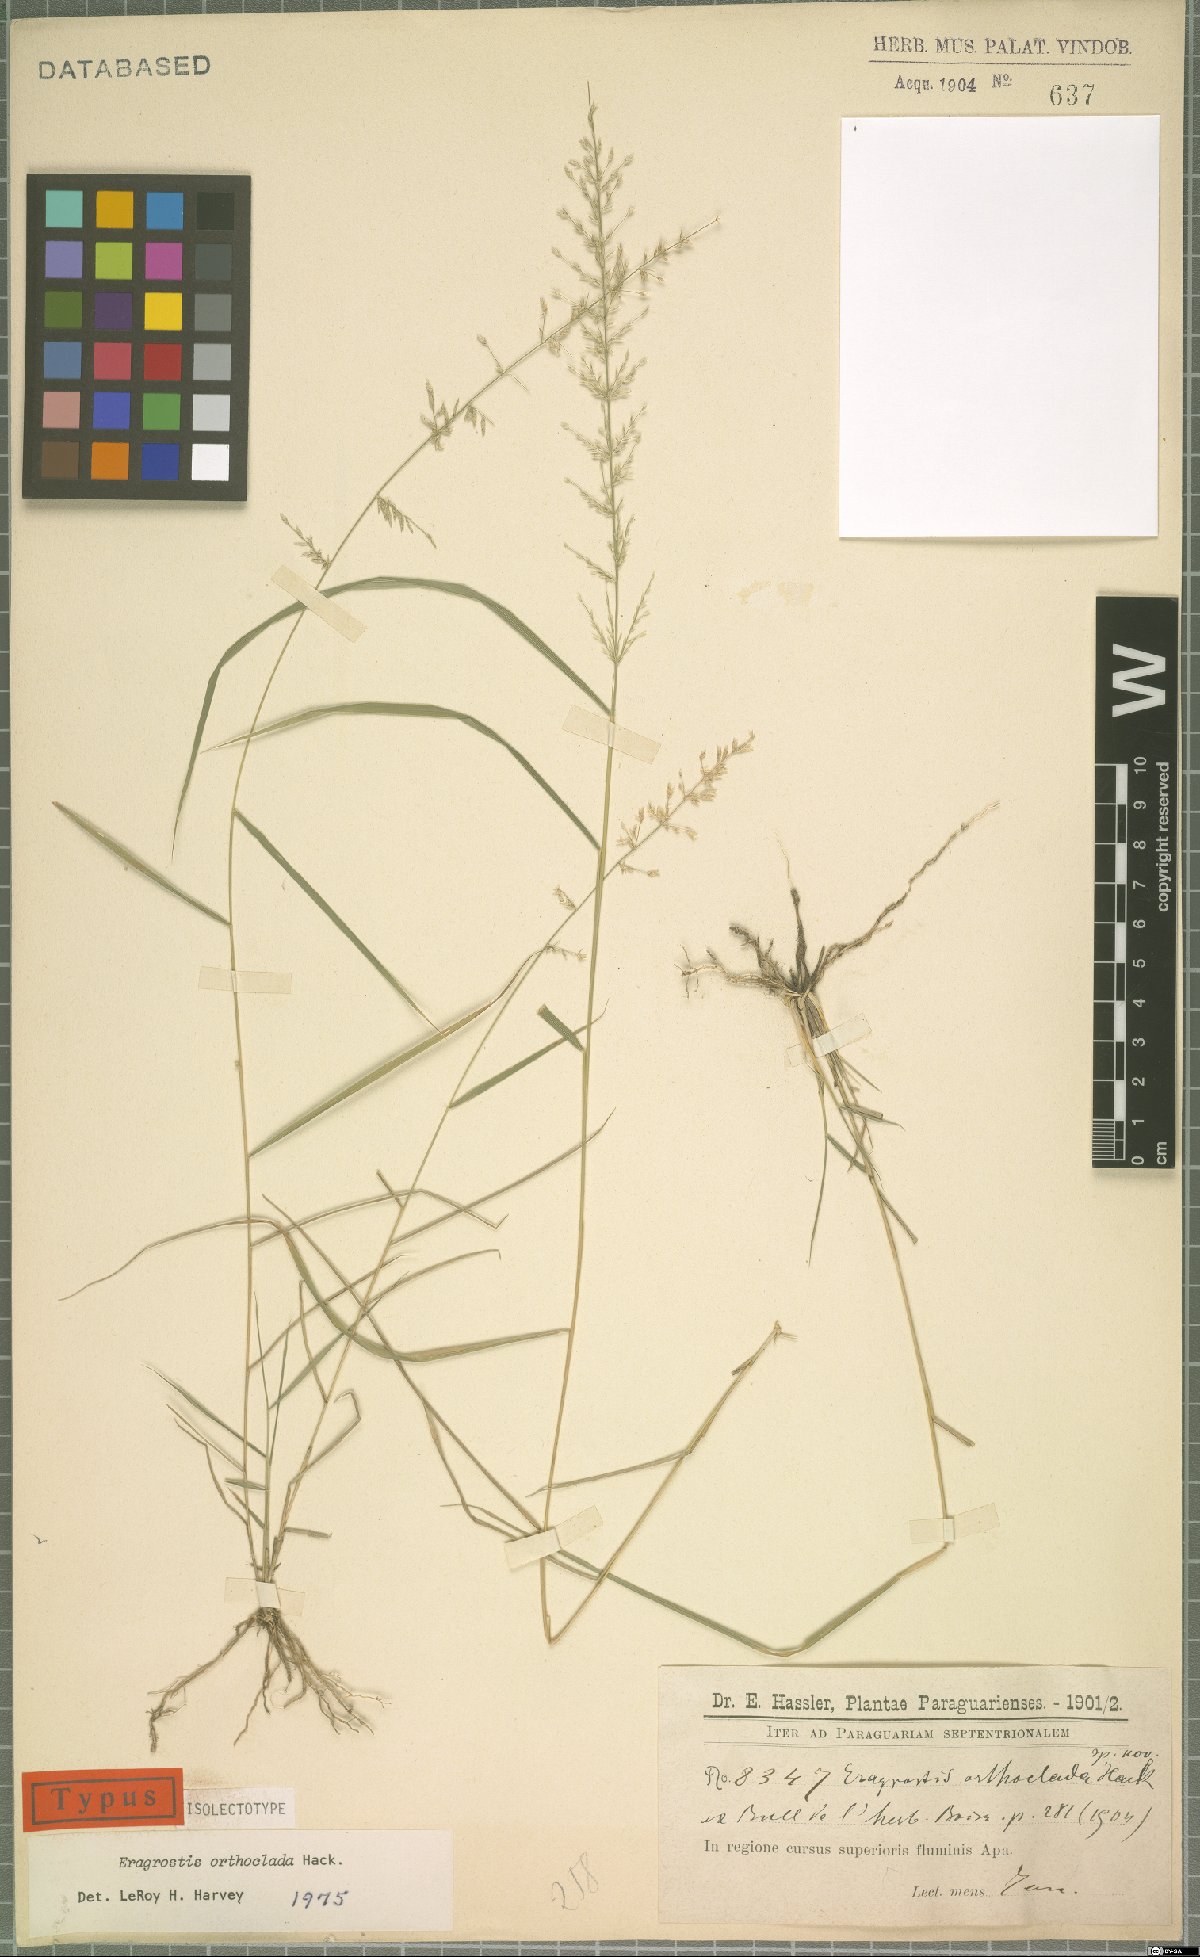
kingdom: Plantae
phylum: Tracheophyta
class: Liliopsida
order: Poales
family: Poaceae
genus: Eragrostis
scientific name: Eragrostis orthoclada
